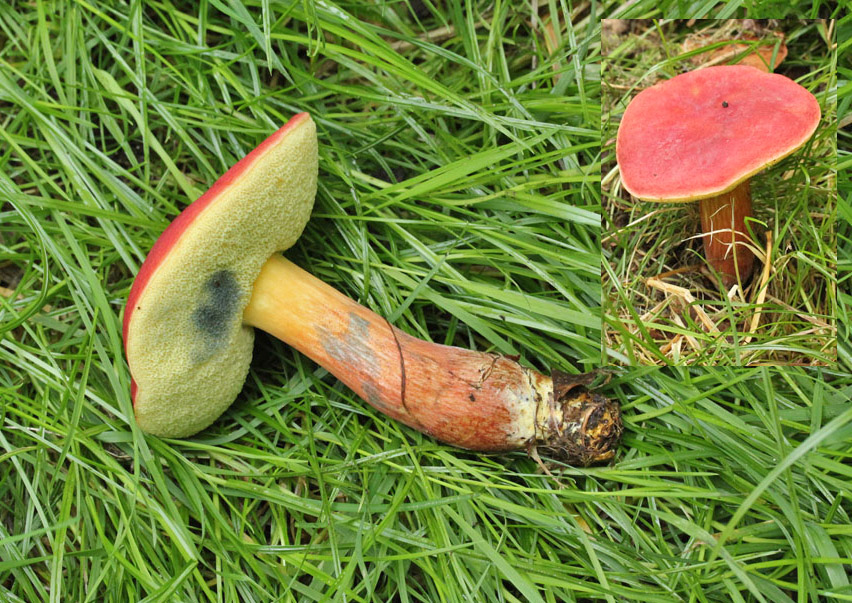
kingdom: Fungi
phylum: Basidiomycota
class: Agaricomycetes
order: Boletales
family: Boletaceae
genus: Hortiboletus
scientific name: Hortiboletus rubellus
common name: blodrød rørhat
